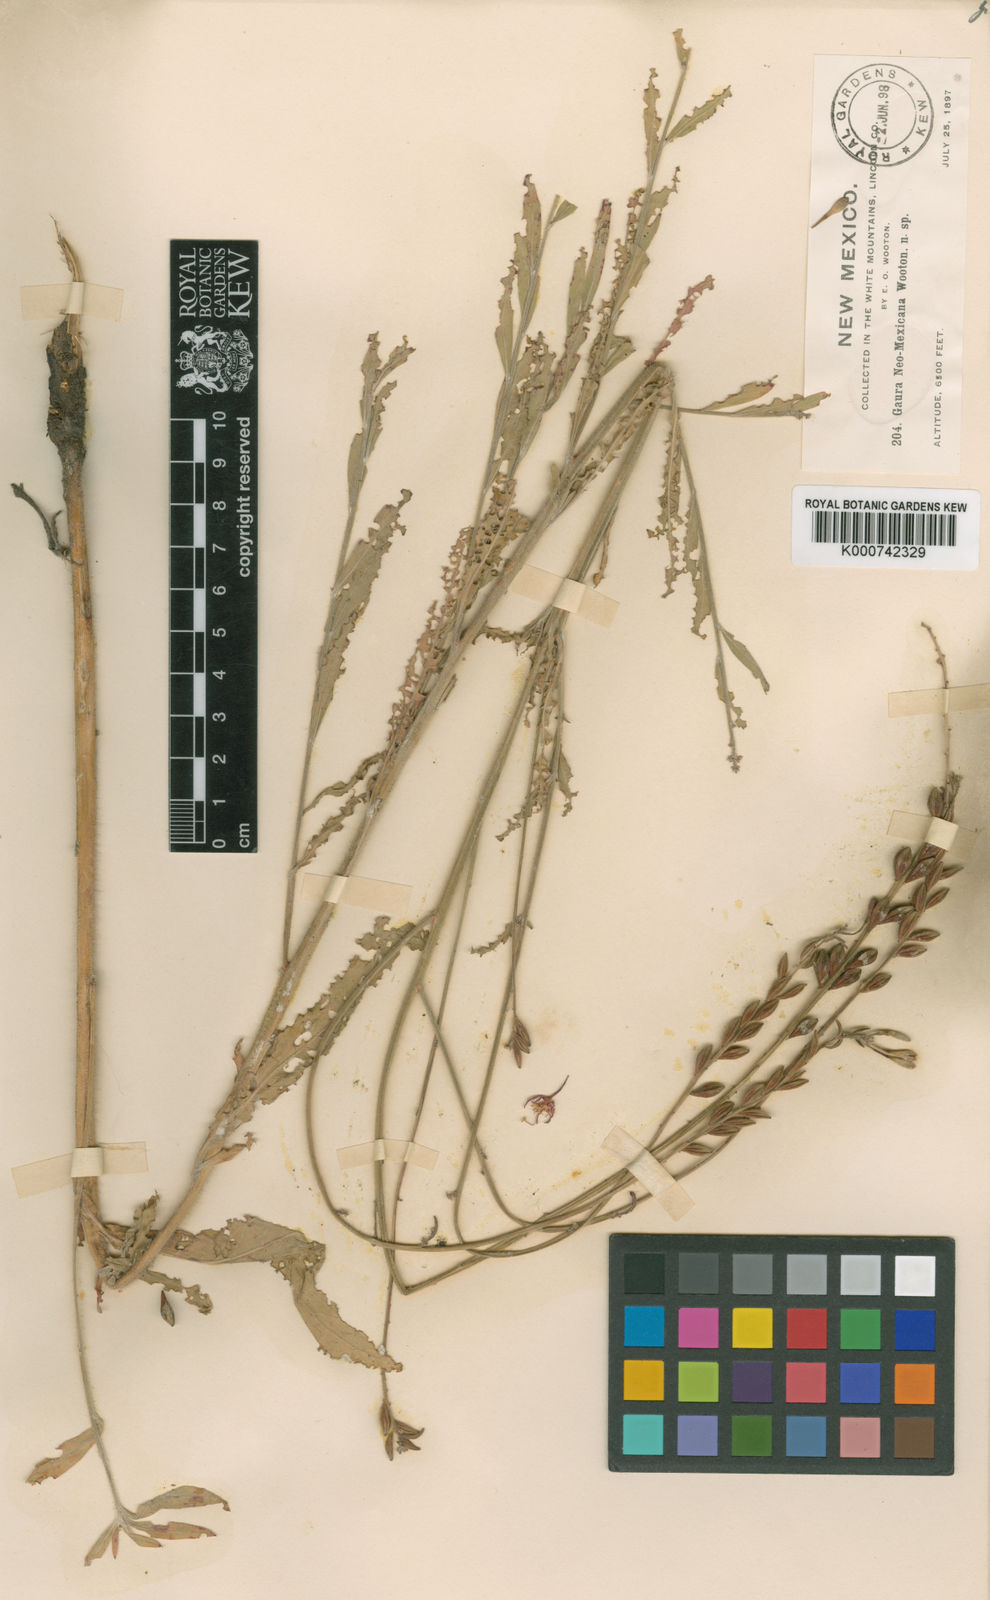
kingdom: Plantae
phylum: Tracheophyta
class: Magnoliopsida
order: Myrtales
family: Onagraceae
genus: Oenothera
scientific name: Oenothera dodgeniana
